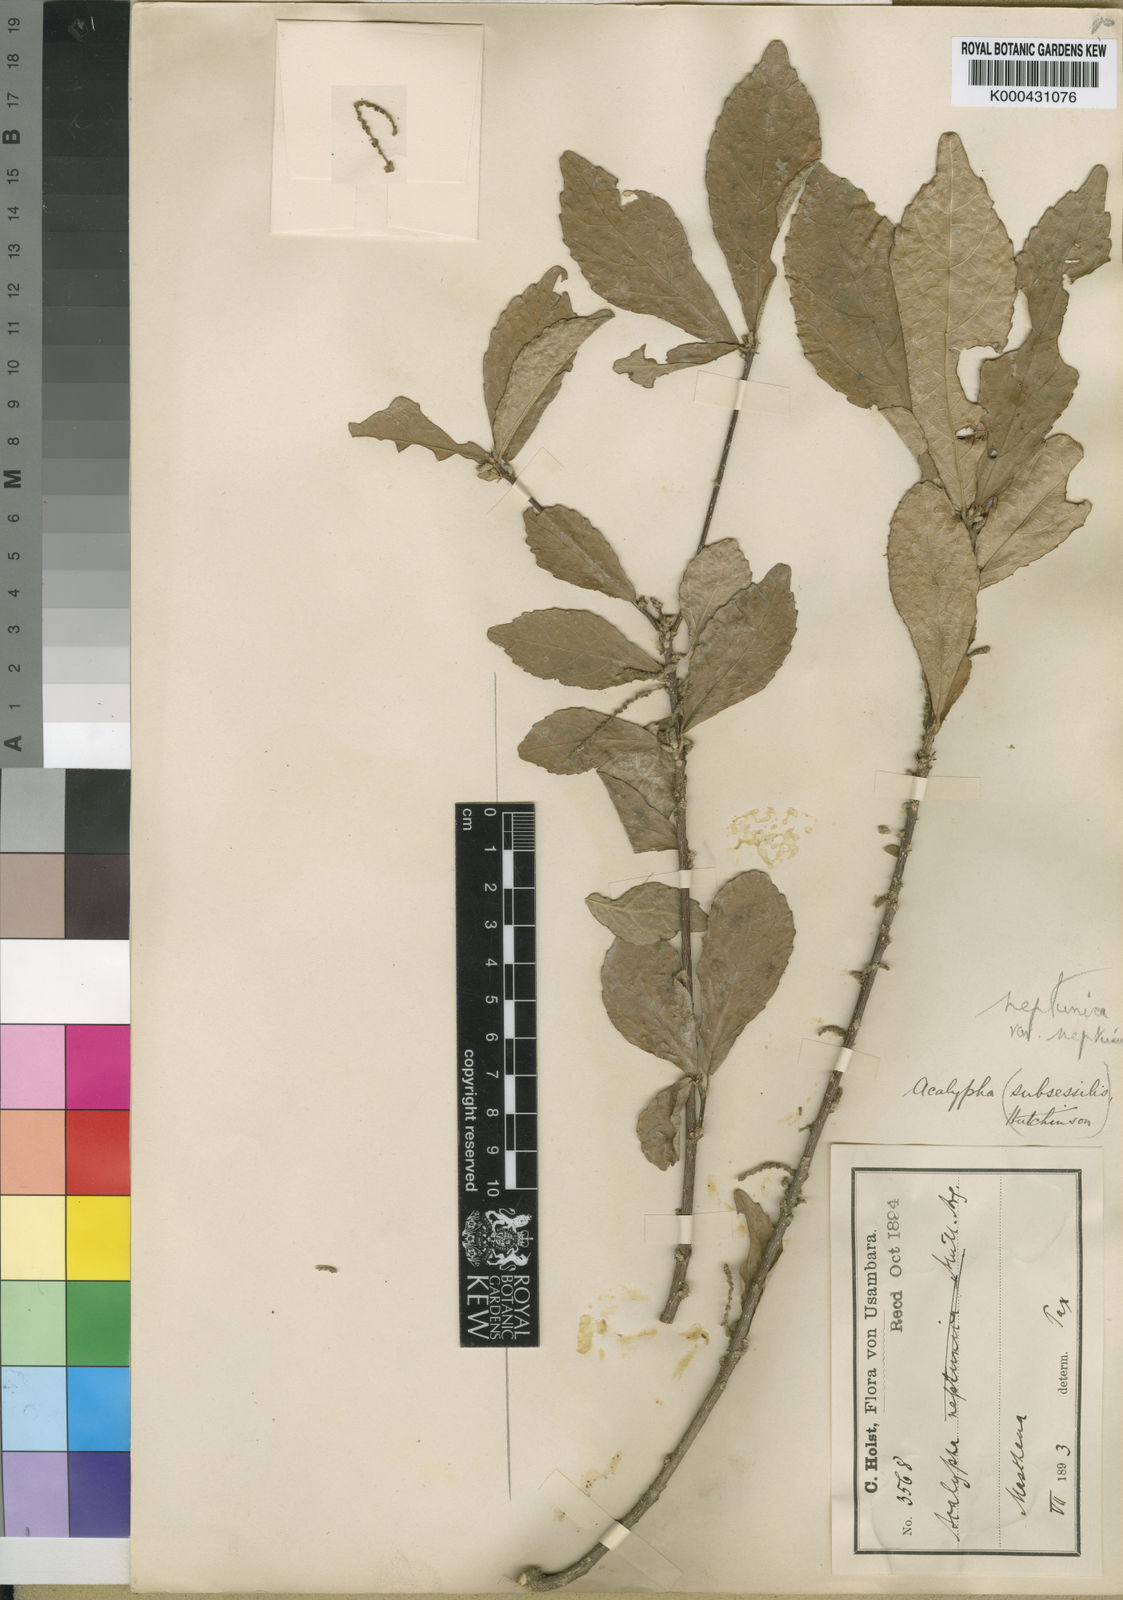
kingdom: Plantae
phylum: Tracheophyta
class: Magnoliopsida
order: Malpighiales
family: Euphorbiaceae
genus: Acalypha
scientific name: Acalypha neptunica
